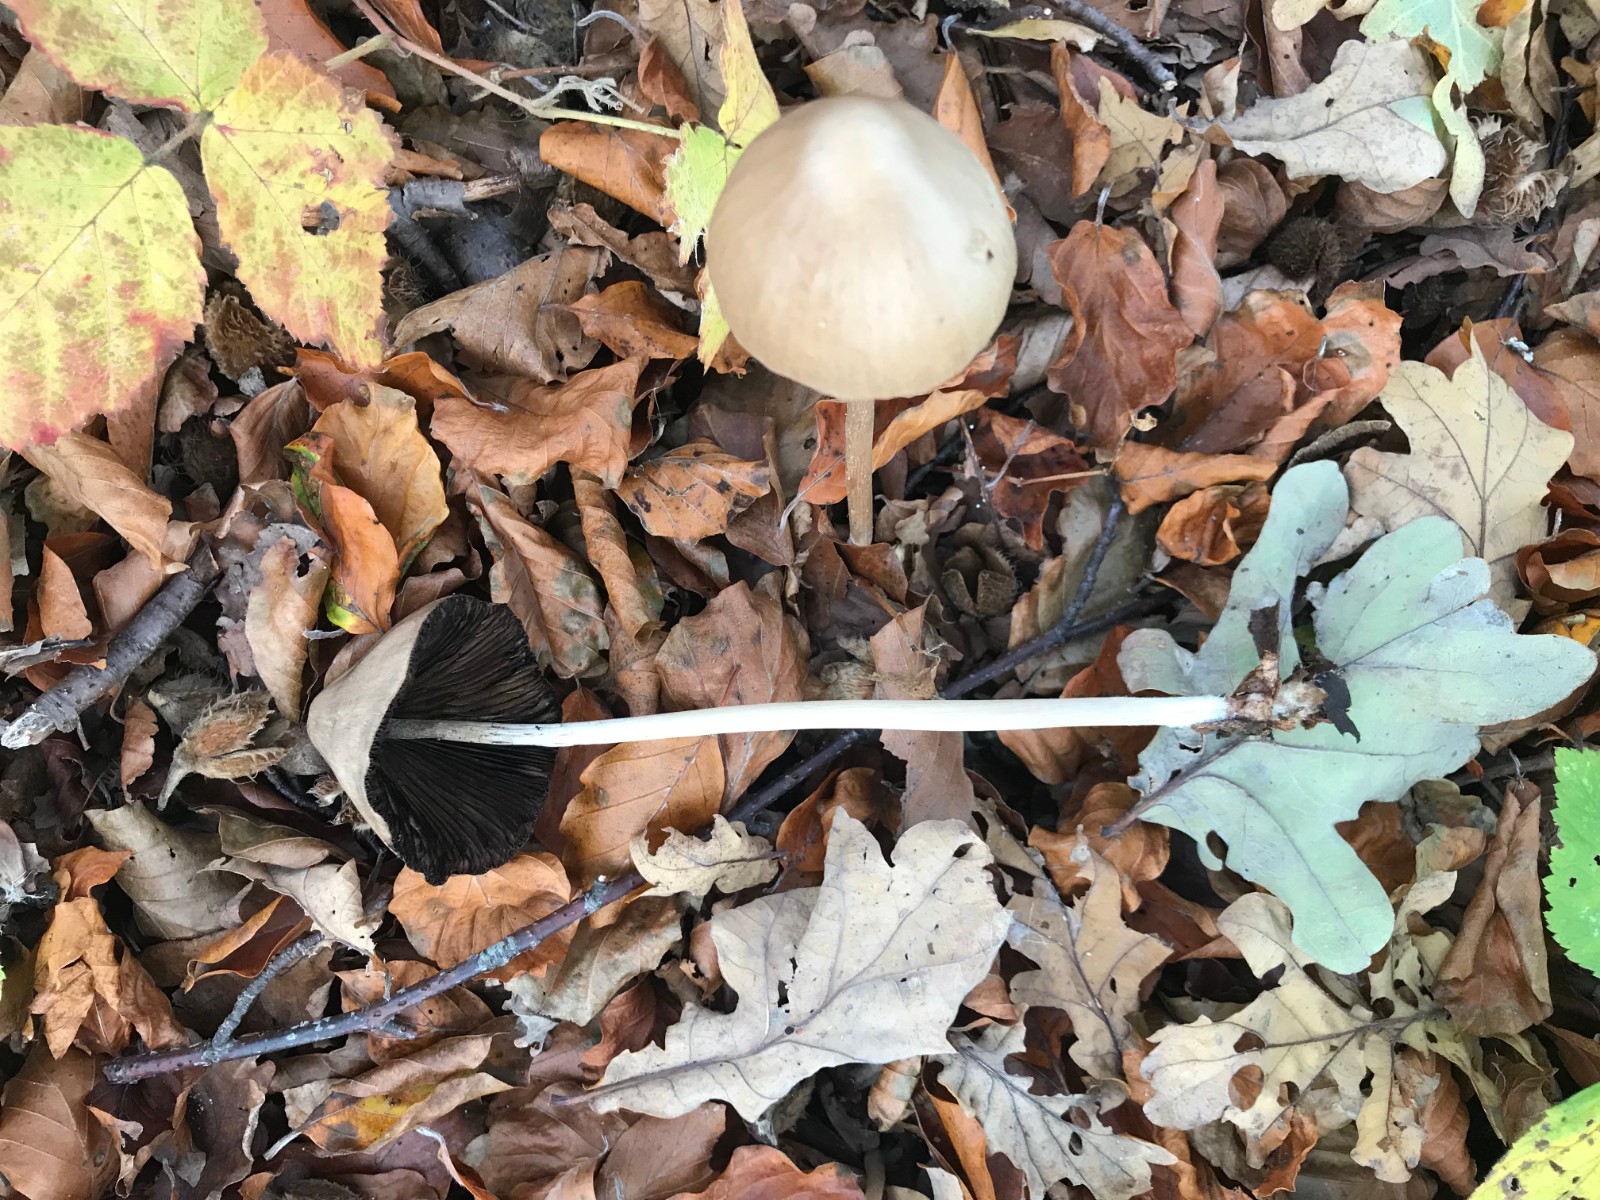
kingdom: Fungi
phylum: Basidiomycota
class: Agaricomycetes
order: Agaricales
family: Psathyrellaceae
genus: Parasola
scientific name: Parasola conopilea
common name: kegle-hjulhat
